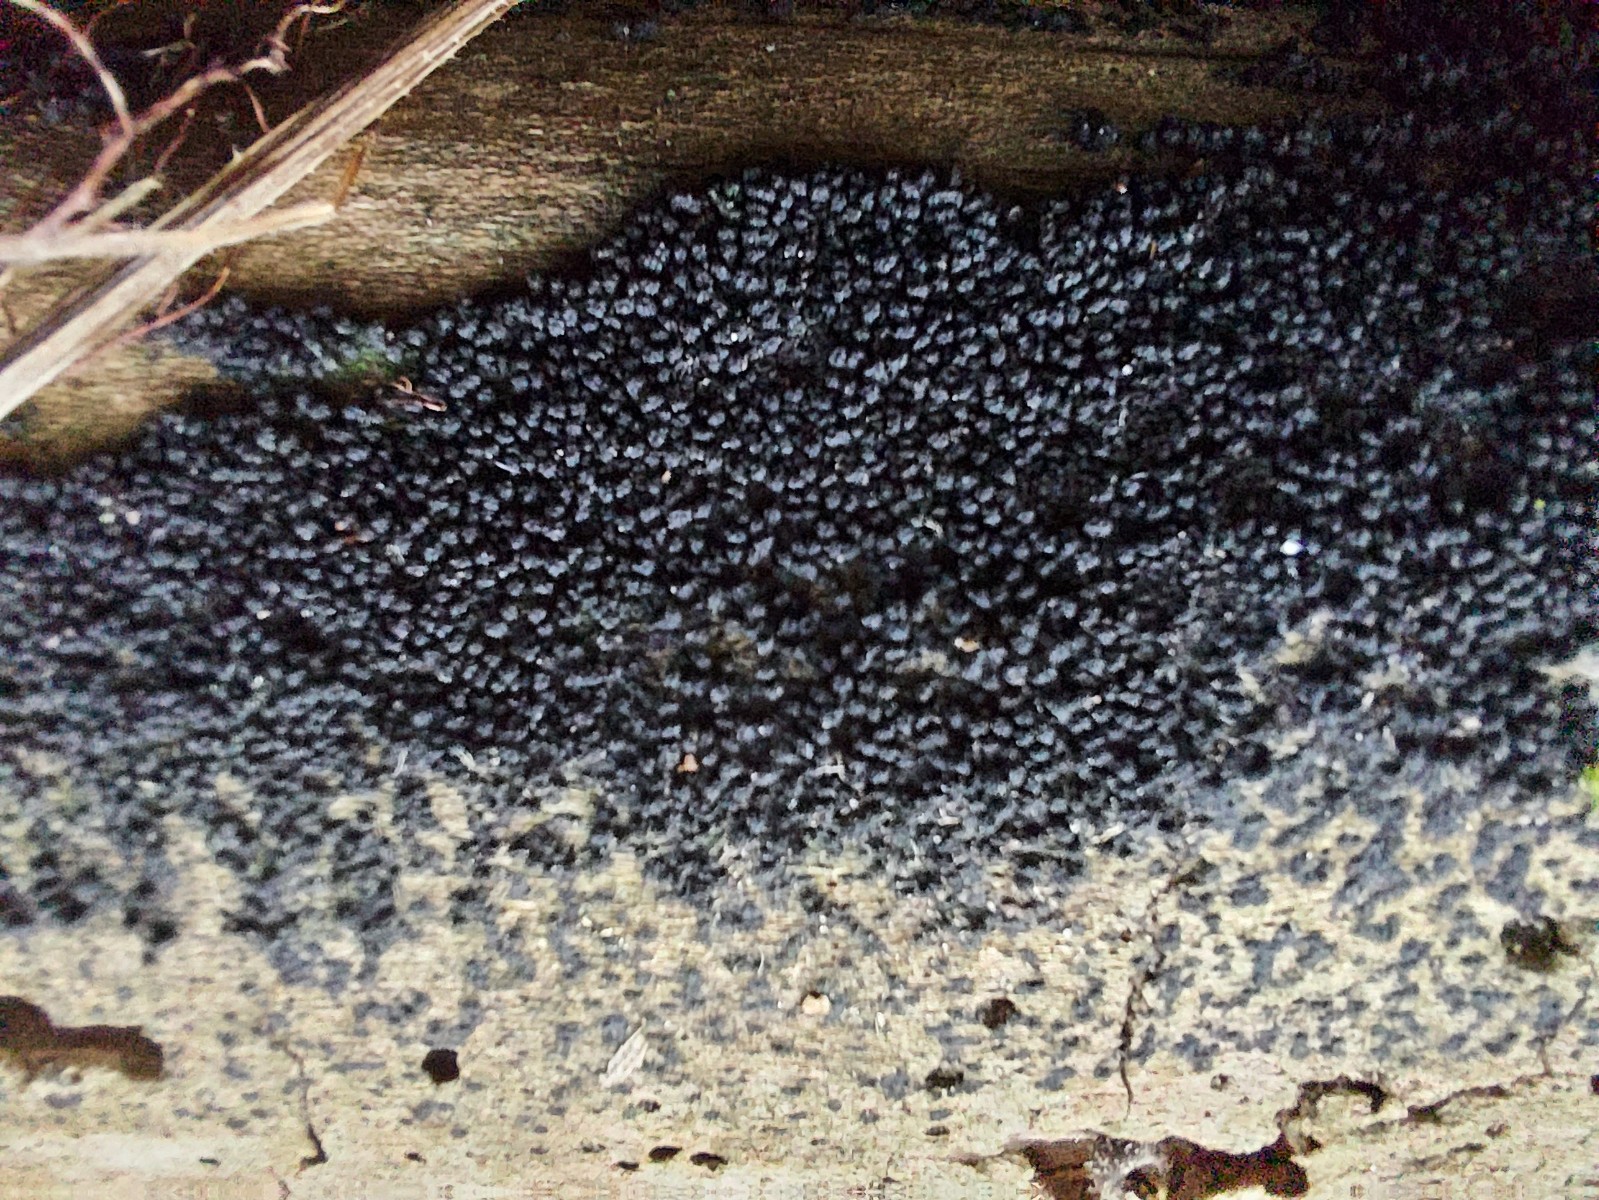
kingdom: Fungi
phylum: Ascomycota
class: Sordariomycetes
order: Coronophorales
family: Bertiaceae
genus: Bertia
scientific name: Bertia moriformis
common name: almindelig morbærkerne
